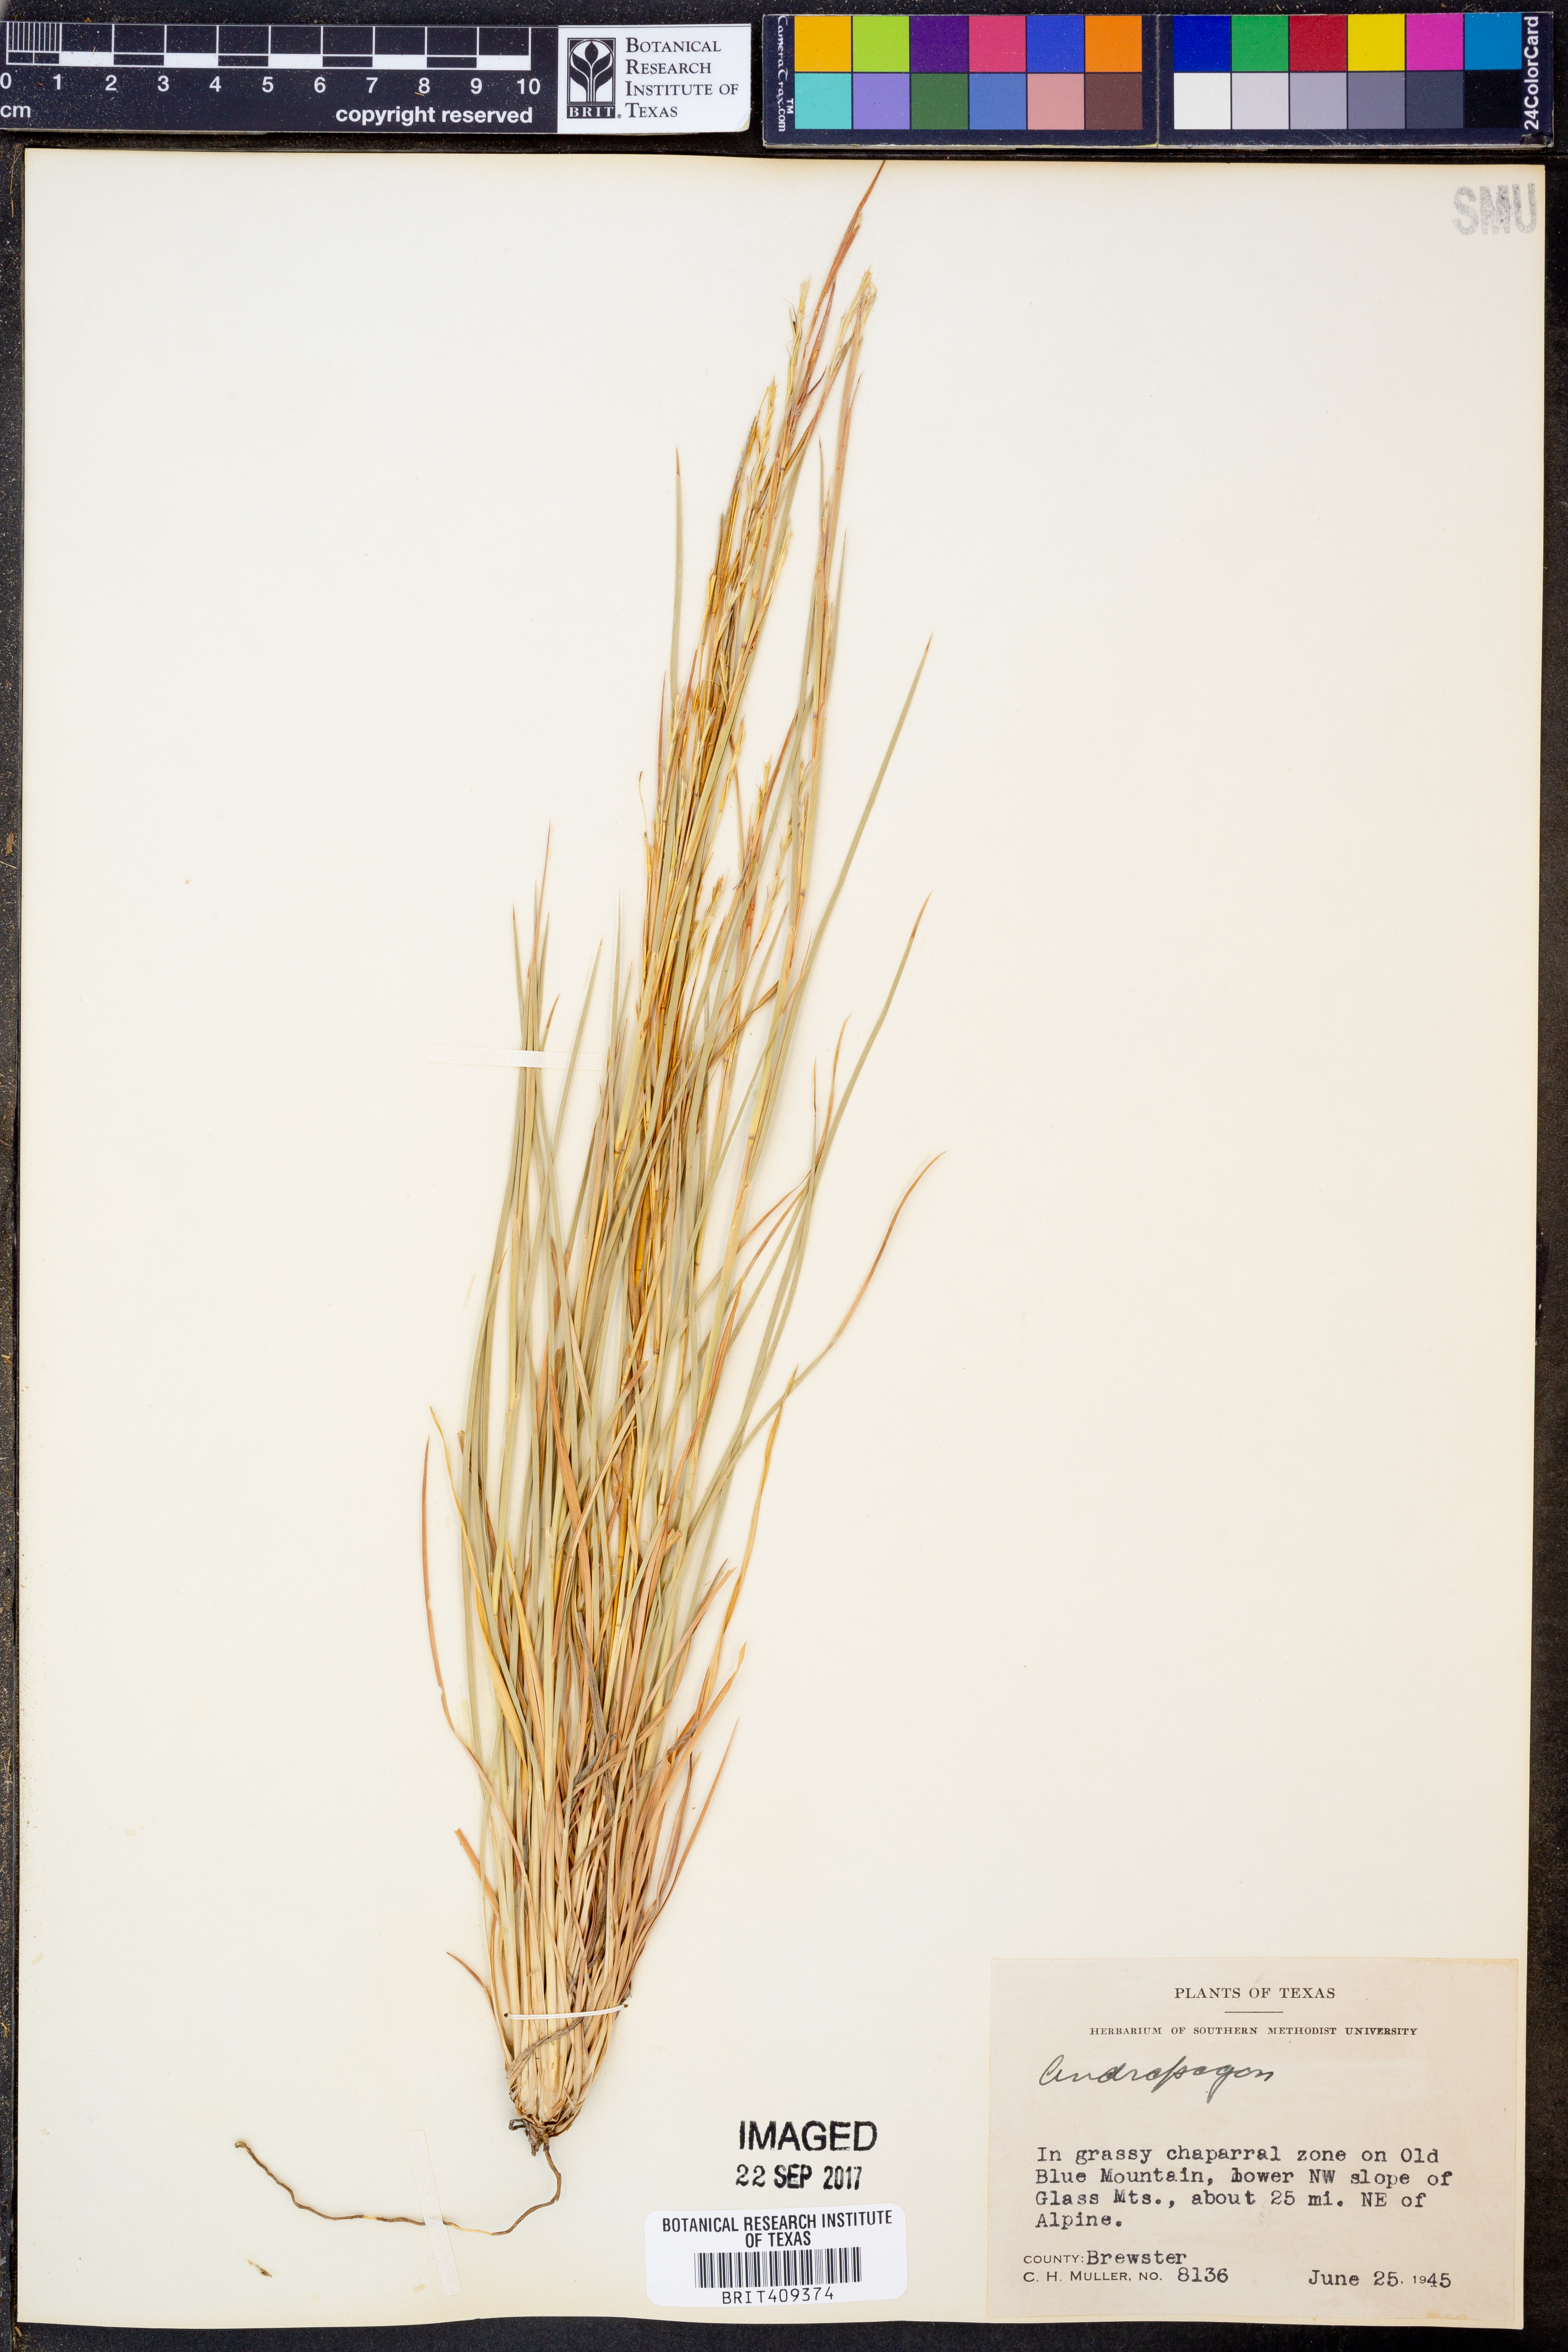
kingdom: Plantae
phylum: Tracheophyta
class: Liliopsida
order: Poales
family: Poaceae
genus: Andropogon
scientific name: Andropogon
